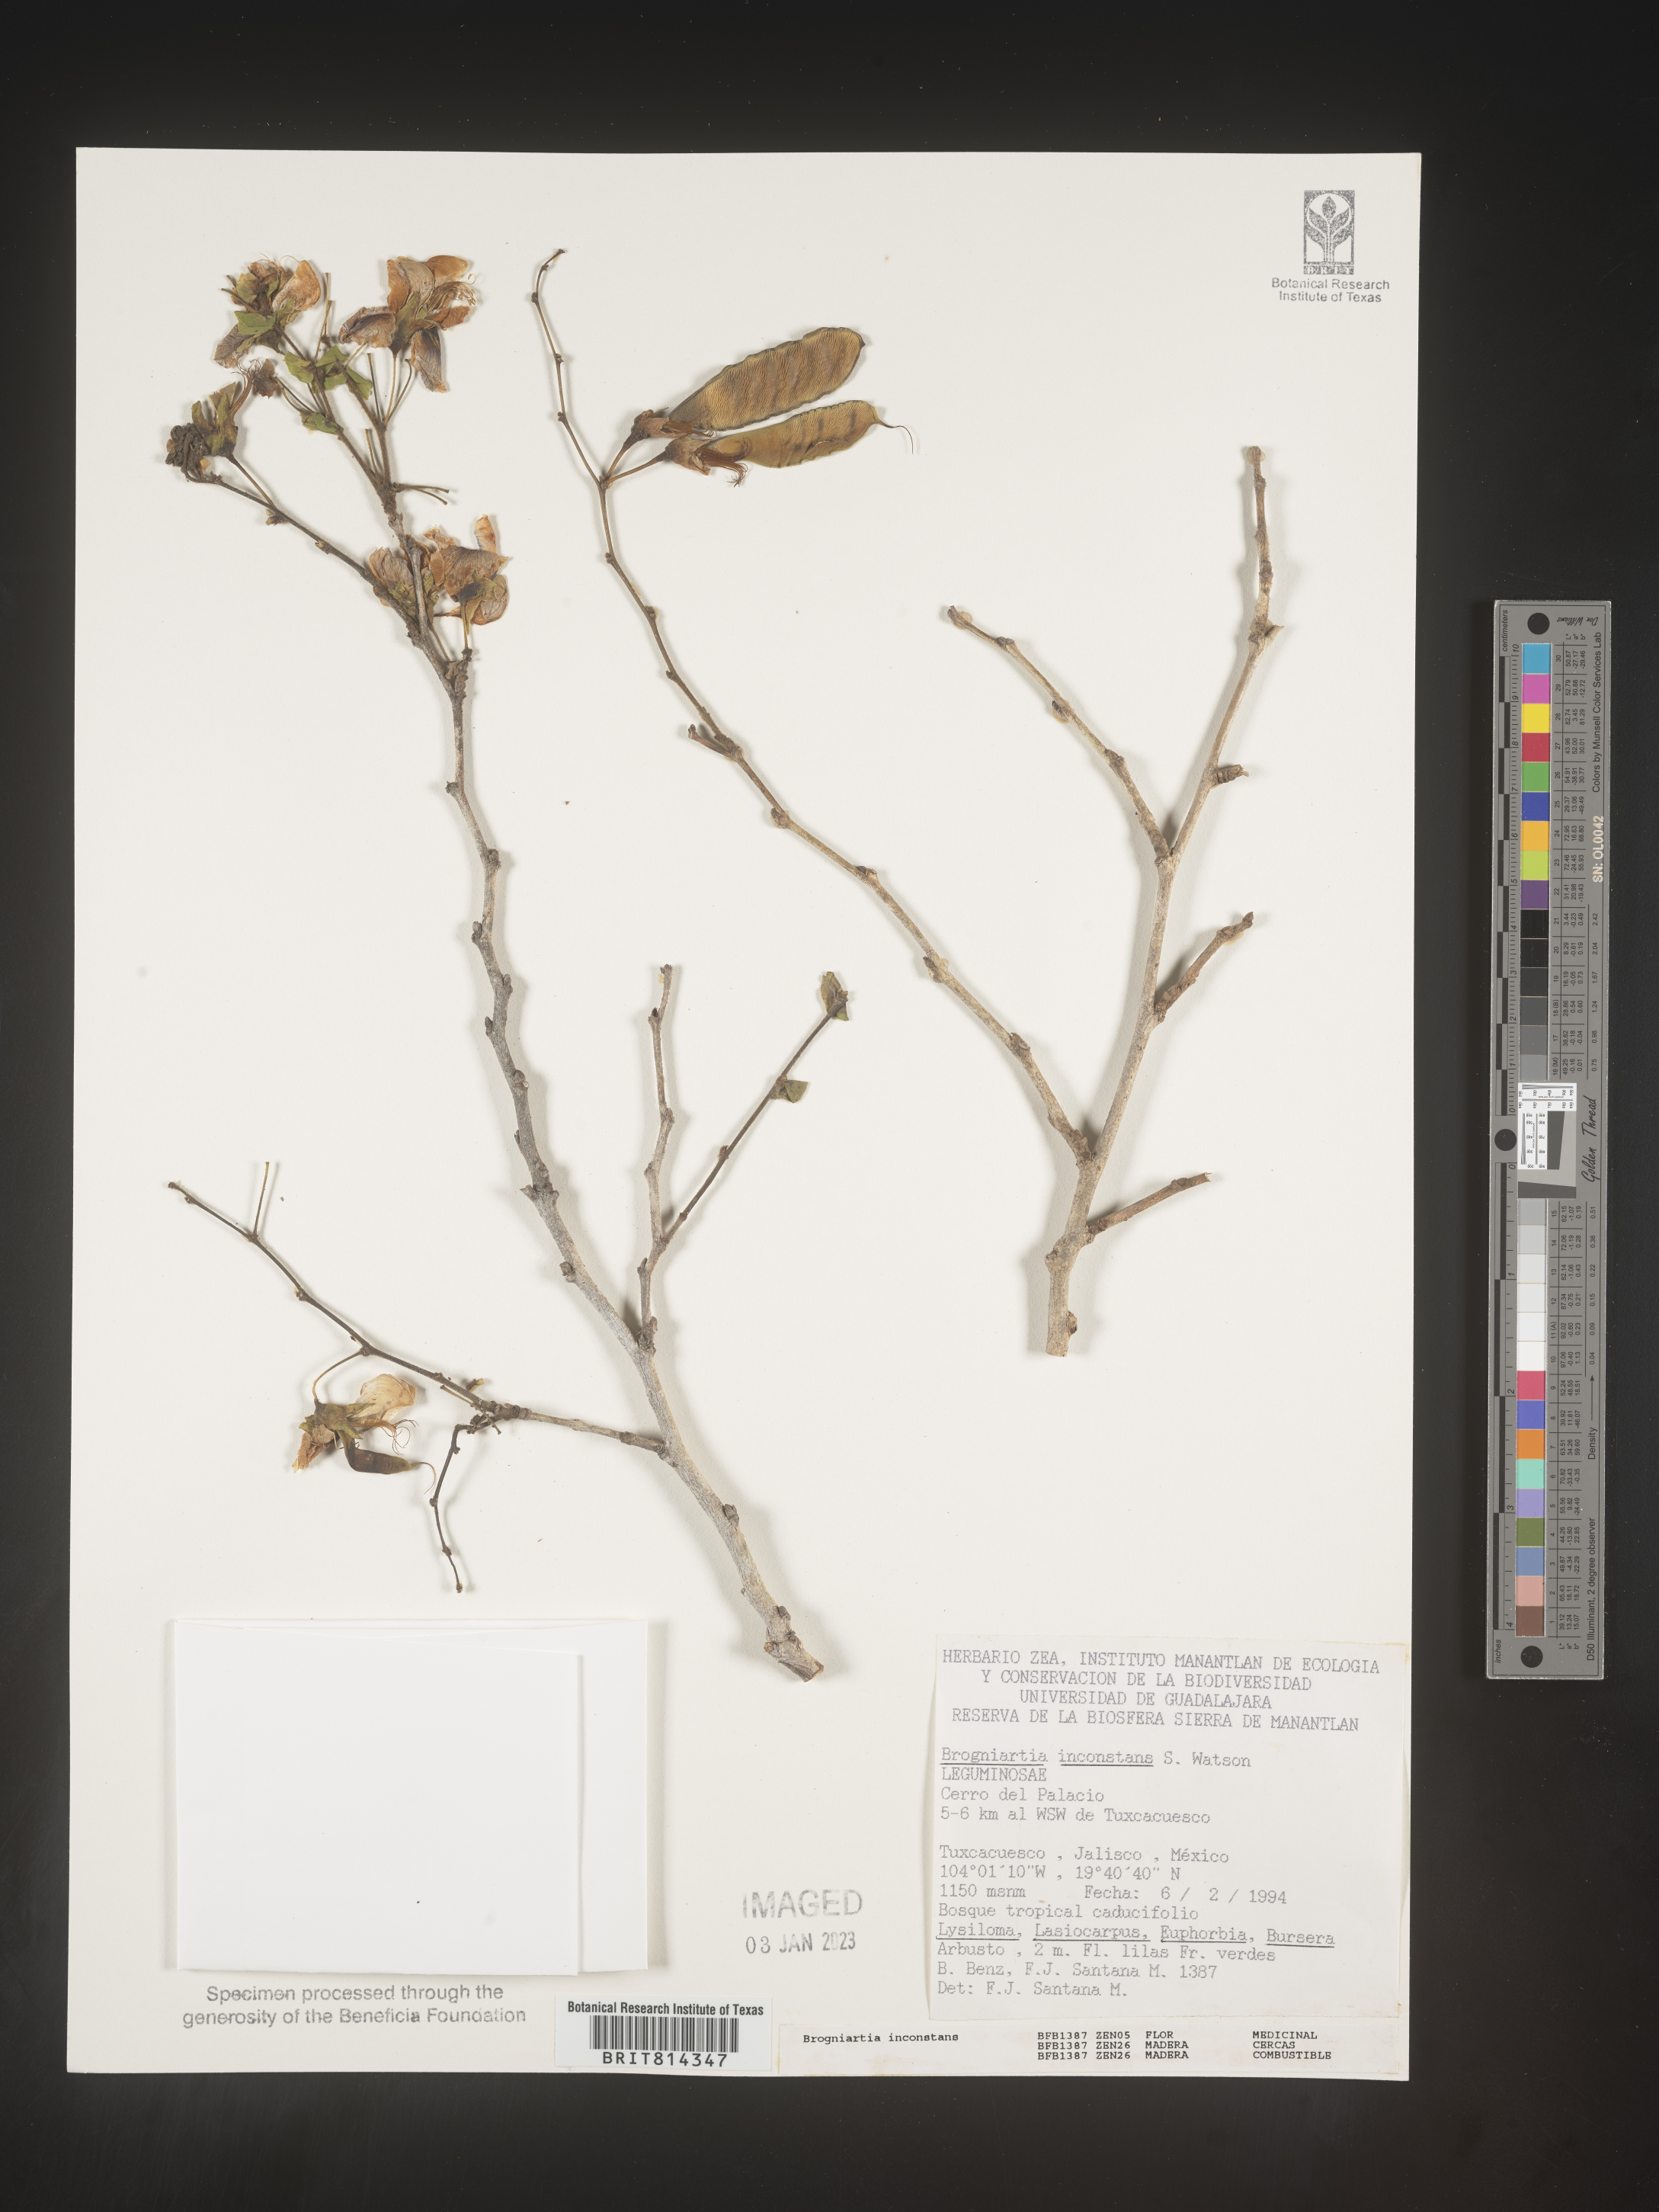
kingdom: Plantae
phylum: Tracheophyta
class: Magnoliopsida
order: Fabales
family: Fabaceae
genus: Brongniartia
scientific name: Brongniartia
